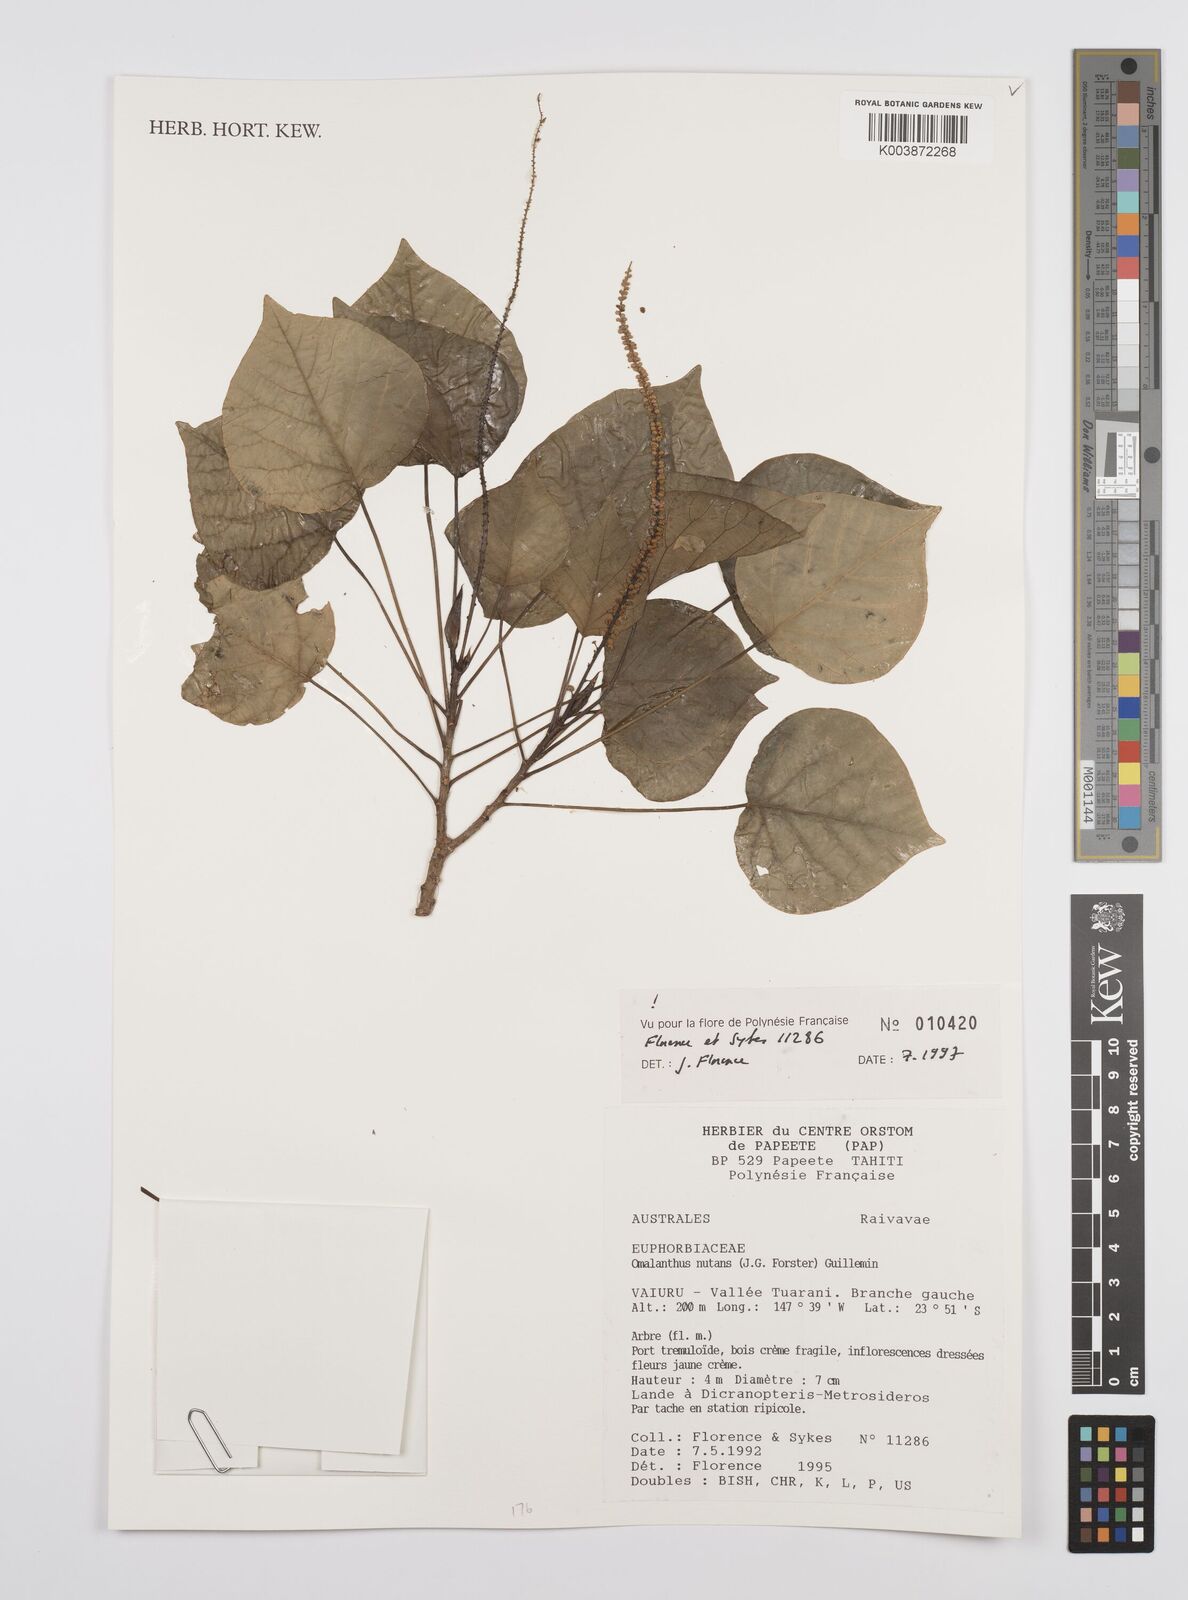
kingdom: Plantae
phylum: Tracheophyta
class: Magnoliopsida
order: Malpighiales
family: Euphorbiaceae
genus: Homalanthus
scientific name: Homalanthus nutans
